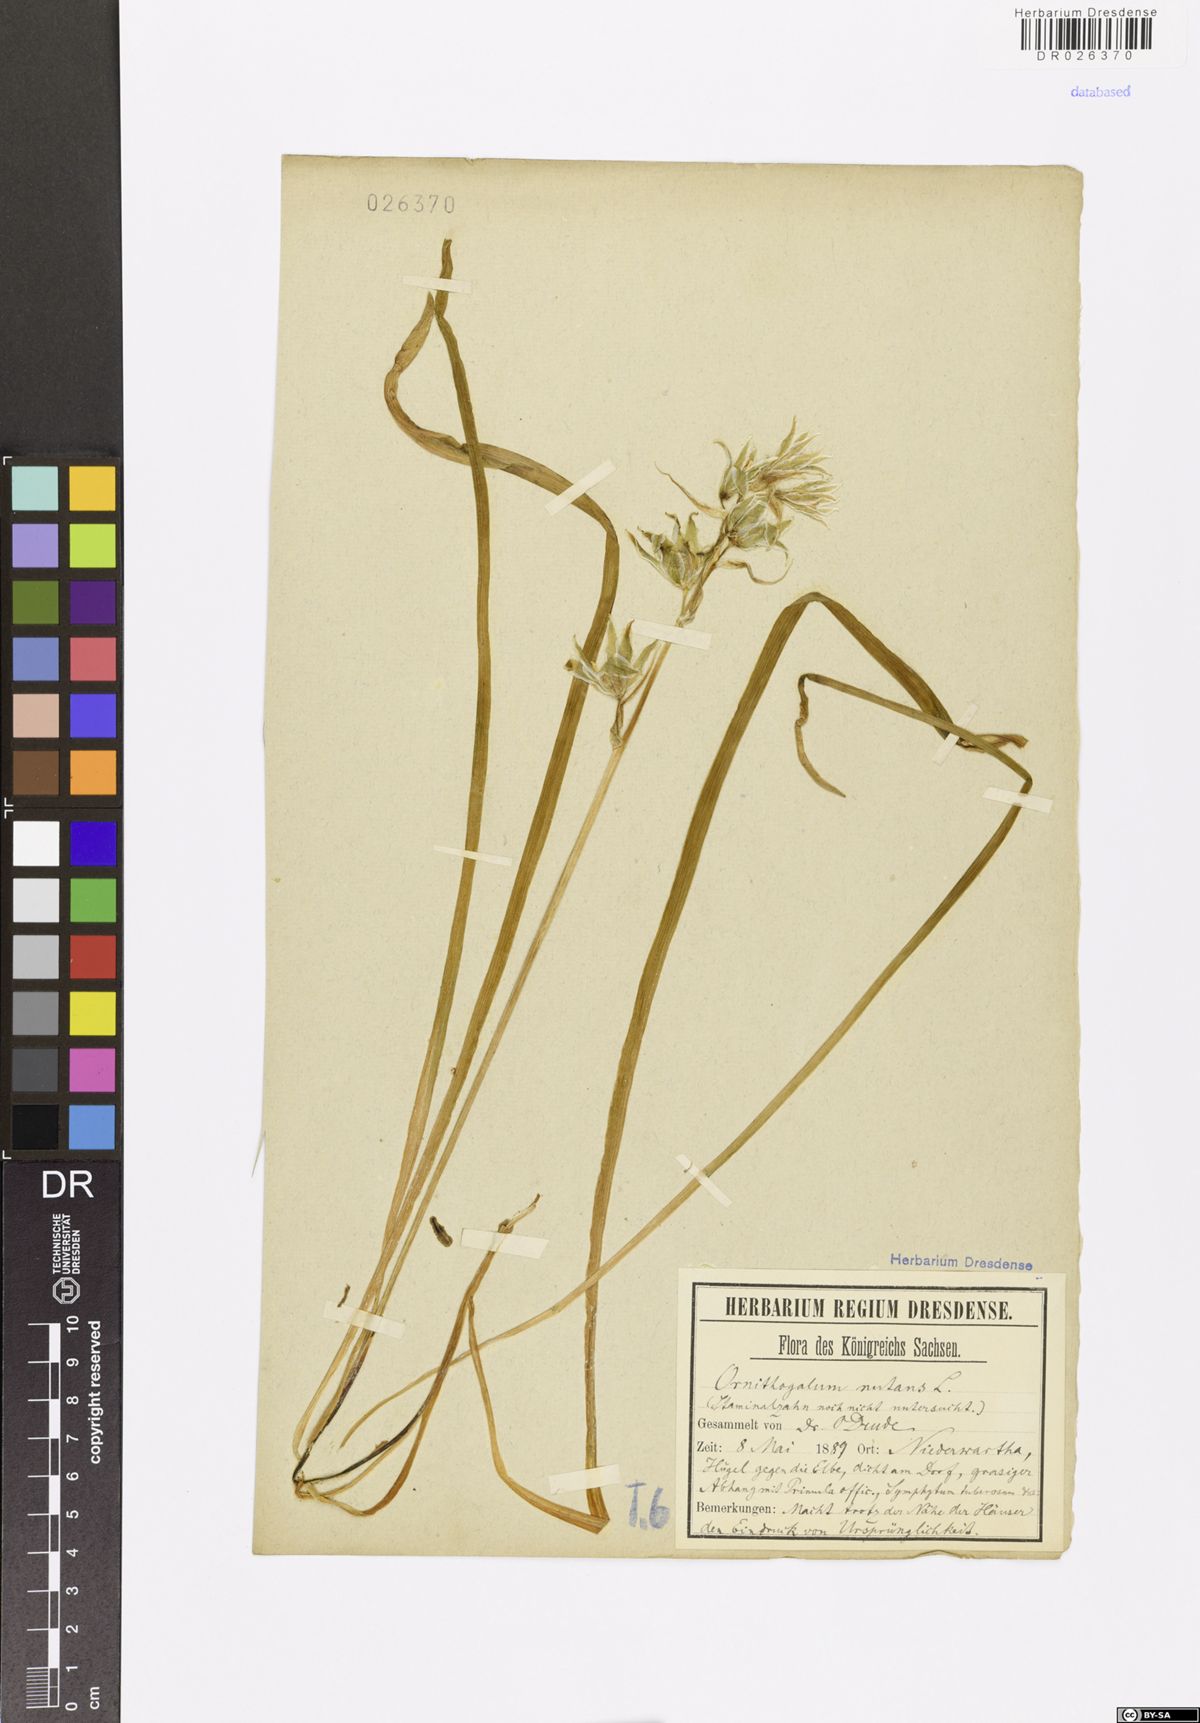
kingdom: Plantae
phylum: Tracheophyta
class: Liliopsida
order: Asparagales
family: Asparagaceae
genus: Ornithogalum
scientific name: Ornithogalum nutans
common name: Drooping star-of-bethlehem
